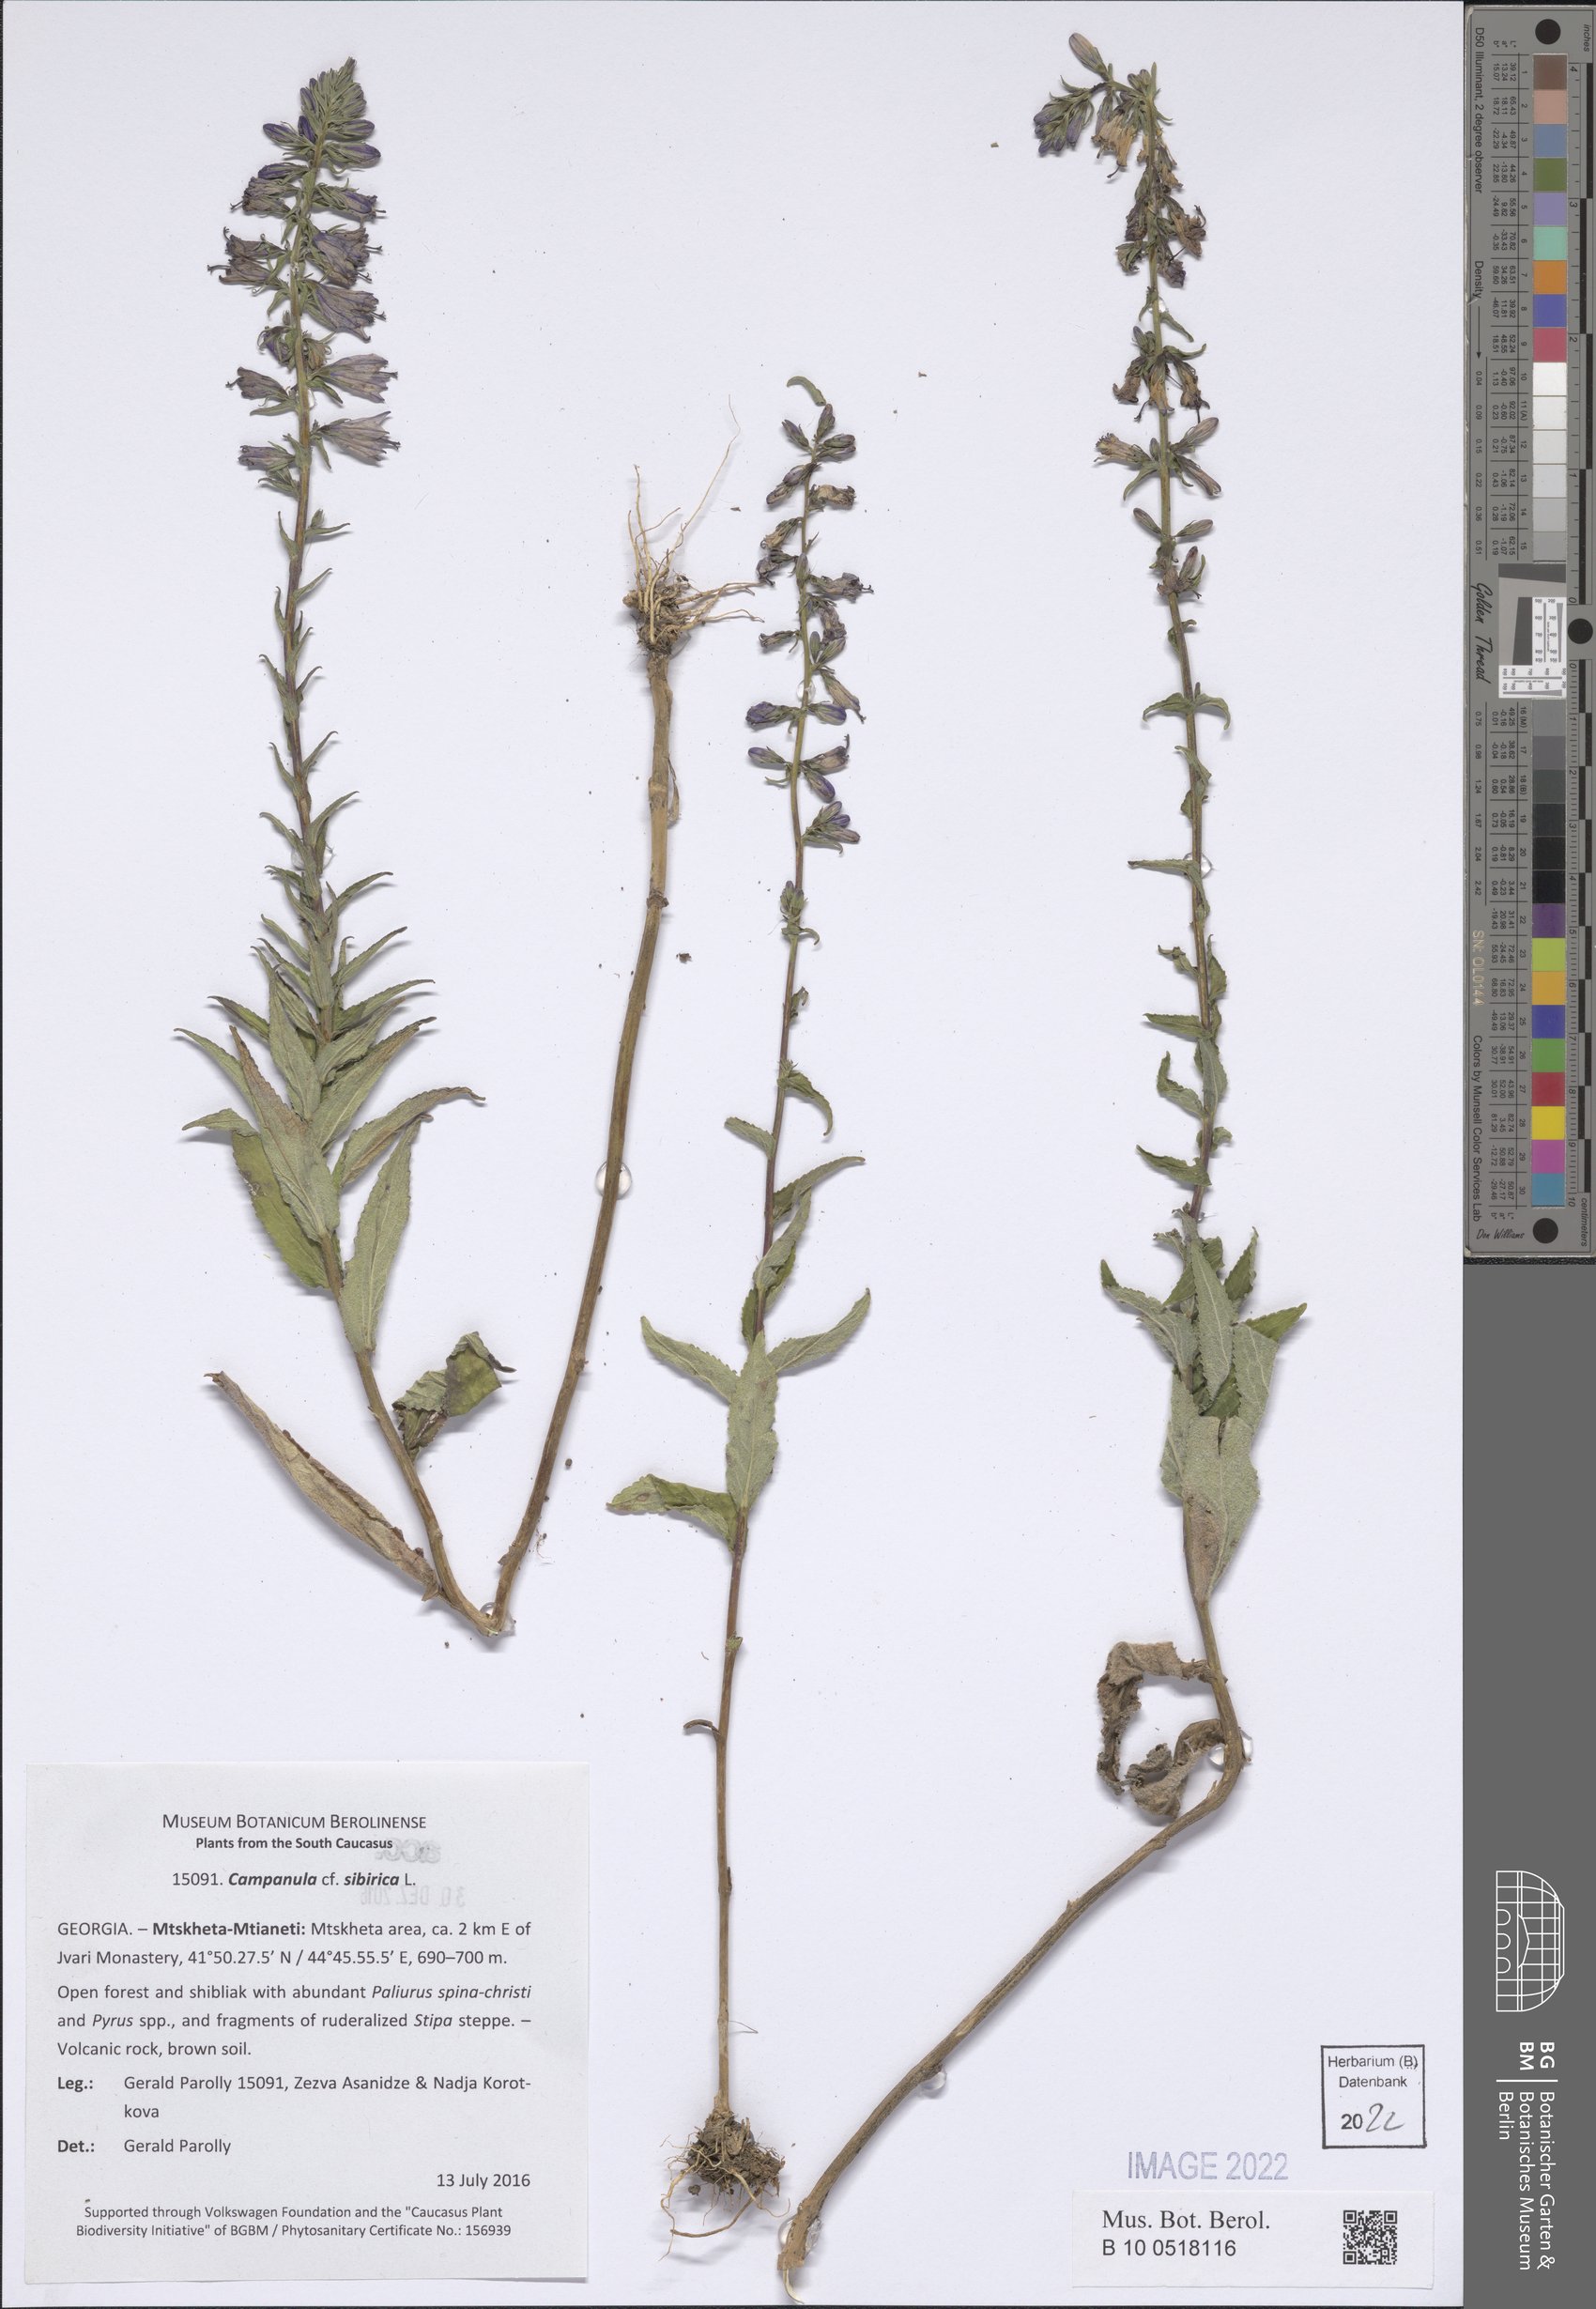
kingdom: Plantae
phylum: Tracheophyta
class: Magnoliopsida
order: Asterales
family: Campanulaceae
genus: Campanula
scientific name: Campanula sibirica
